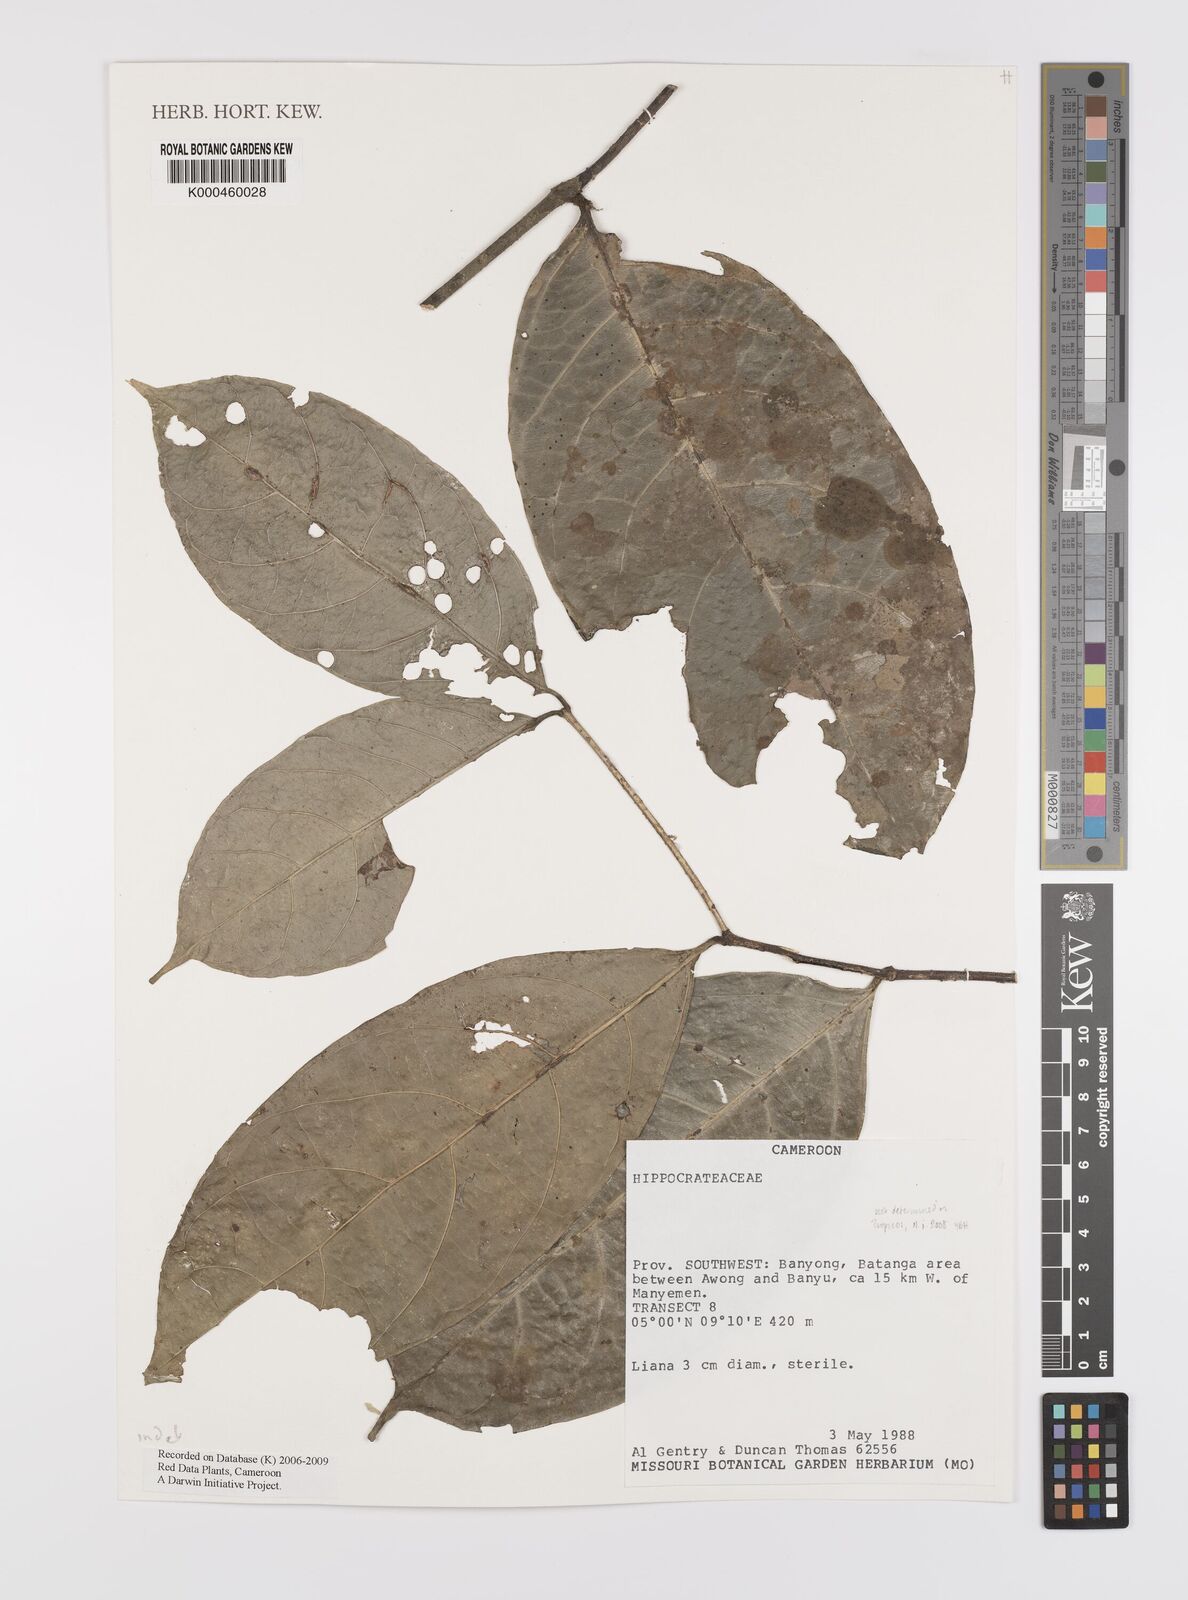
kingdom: Plantae
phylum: Tracheophyta
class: Magnoliopsida
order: Celastrales
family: Celastraceae
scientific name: Celastraceae
